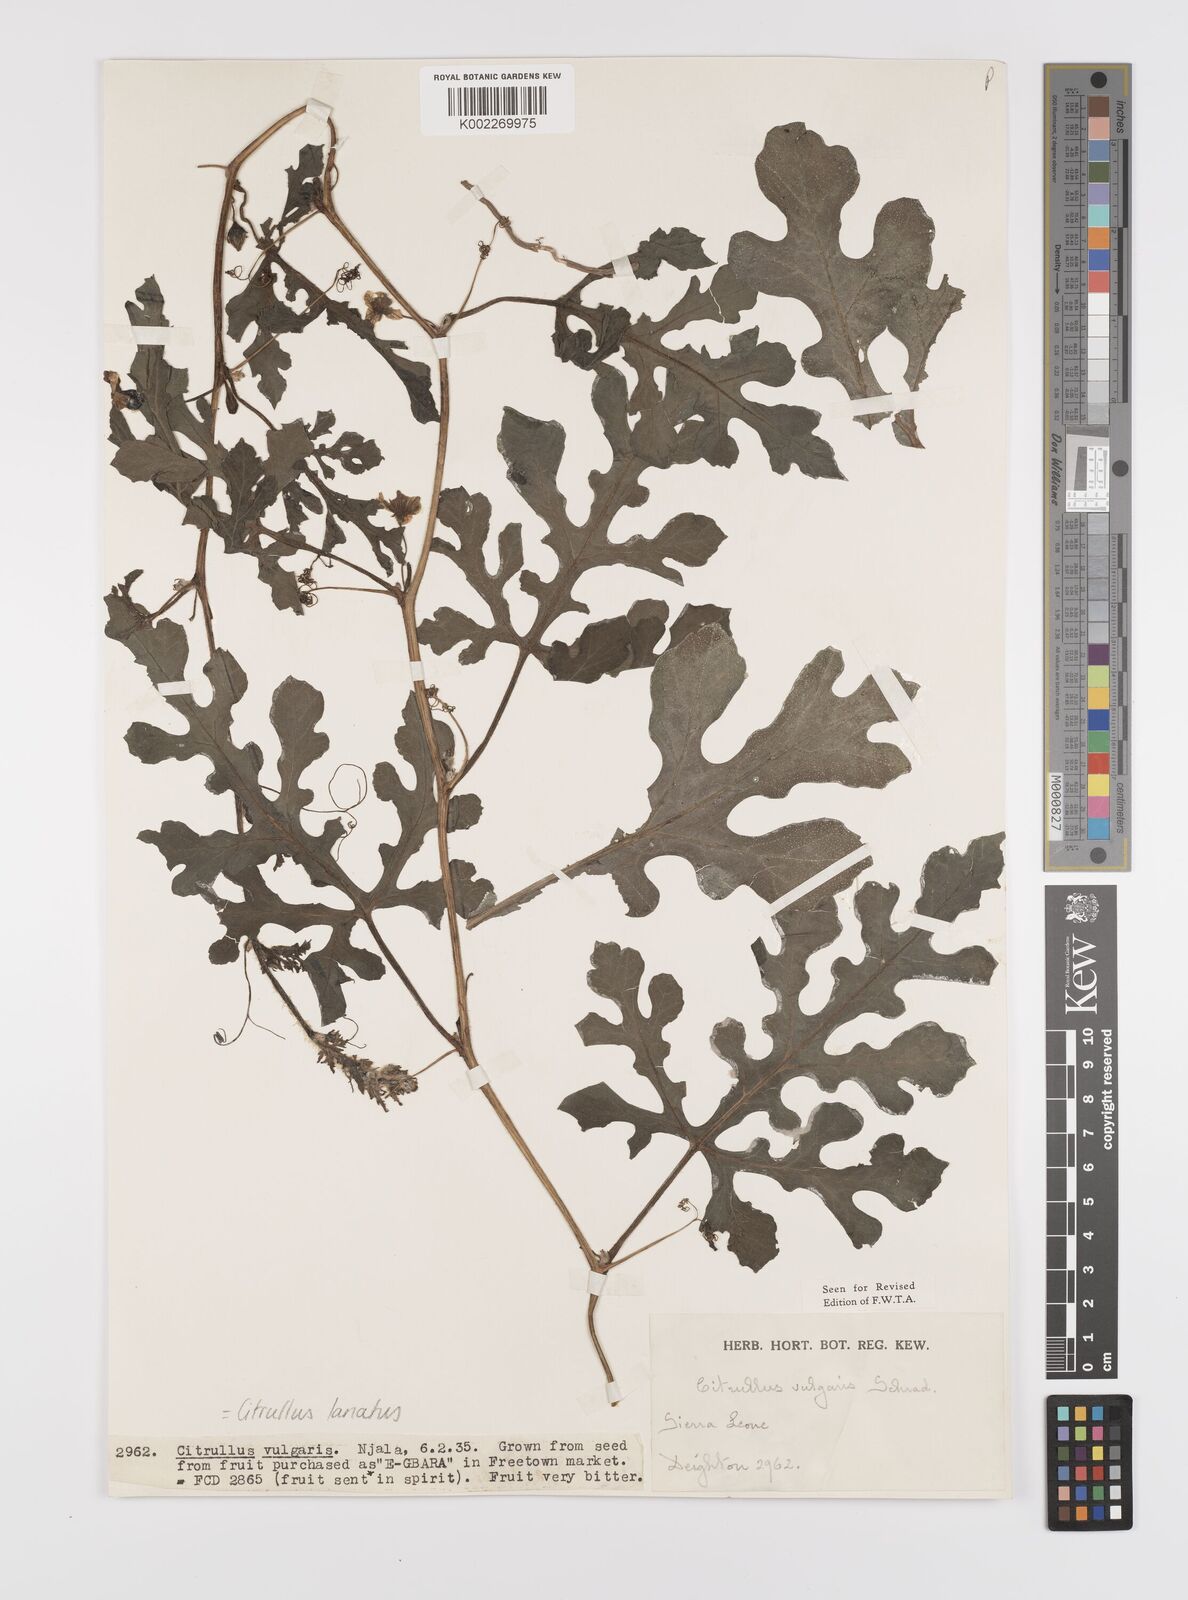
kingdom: Plantae
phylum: Tracheophyta
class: Magnoliopsida
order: Cucurbitales
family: Cucurbitaceae
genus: Citrullus
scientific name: Citrullus lanatus
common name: Watermelon
